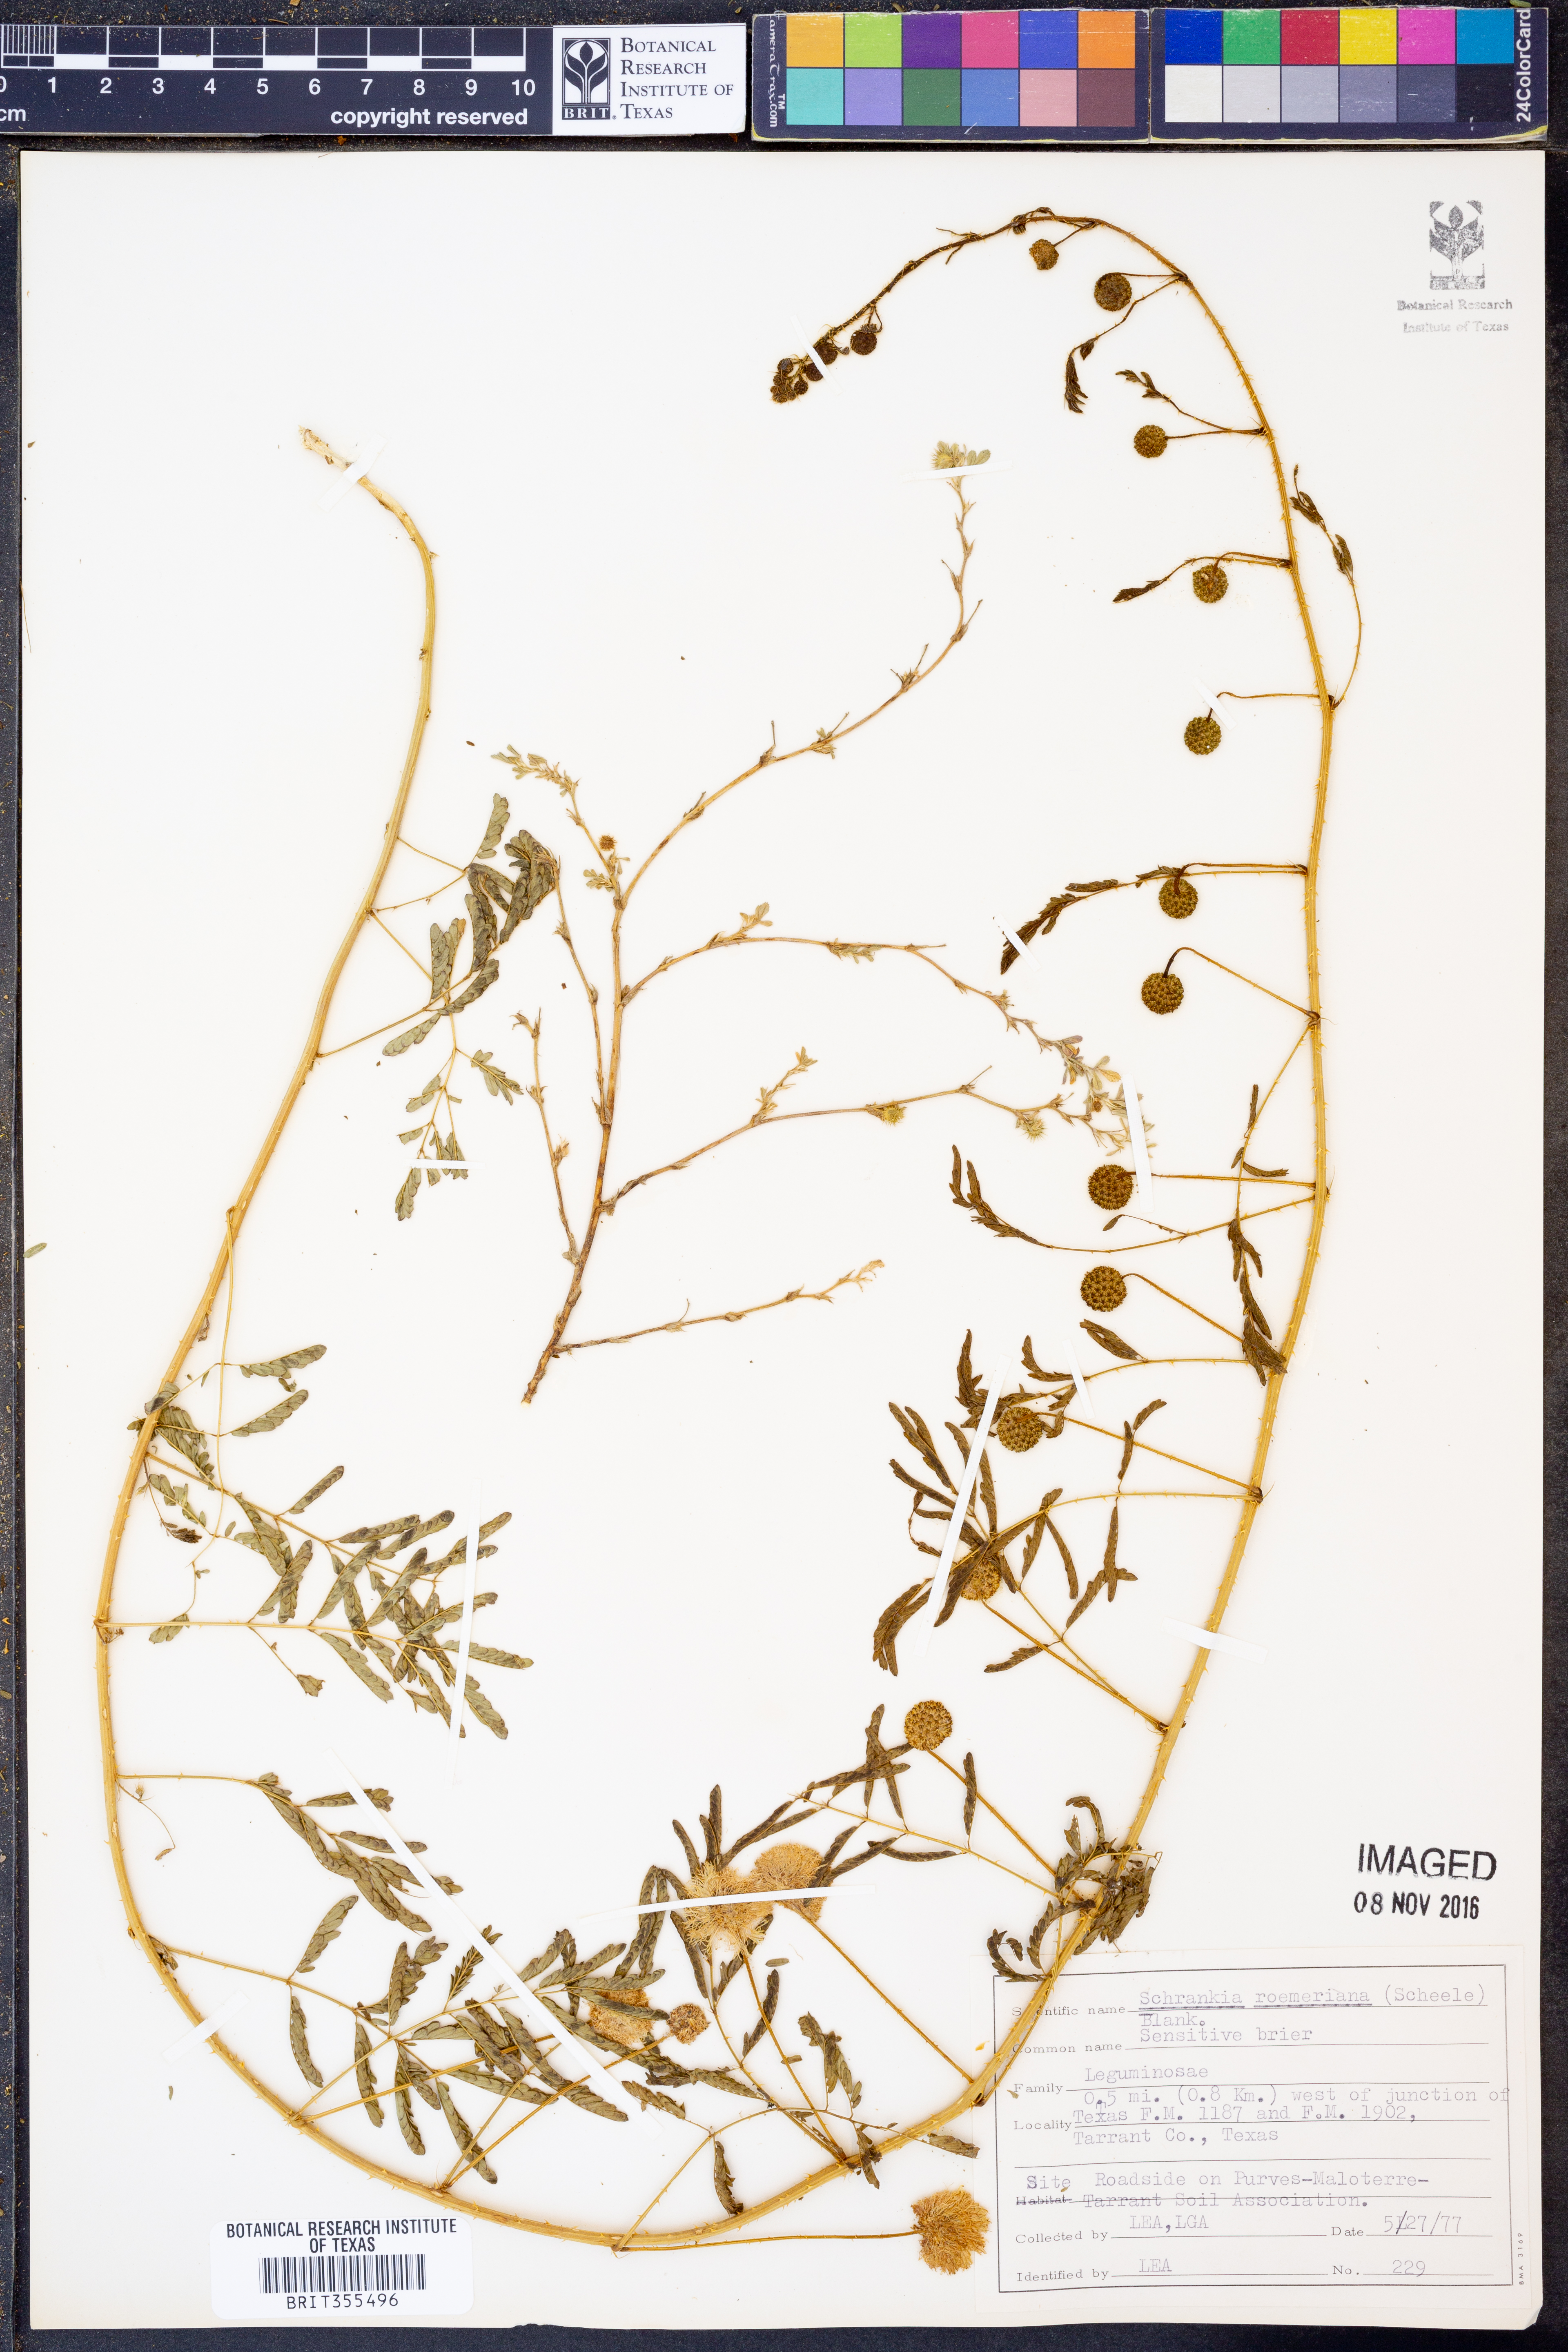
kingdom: Plantae
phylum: Tracheophyta
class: Magnoliopsida
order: Fabales
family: Fabaceae
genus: Mimosa
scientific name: Mimosa quadrivalvis
